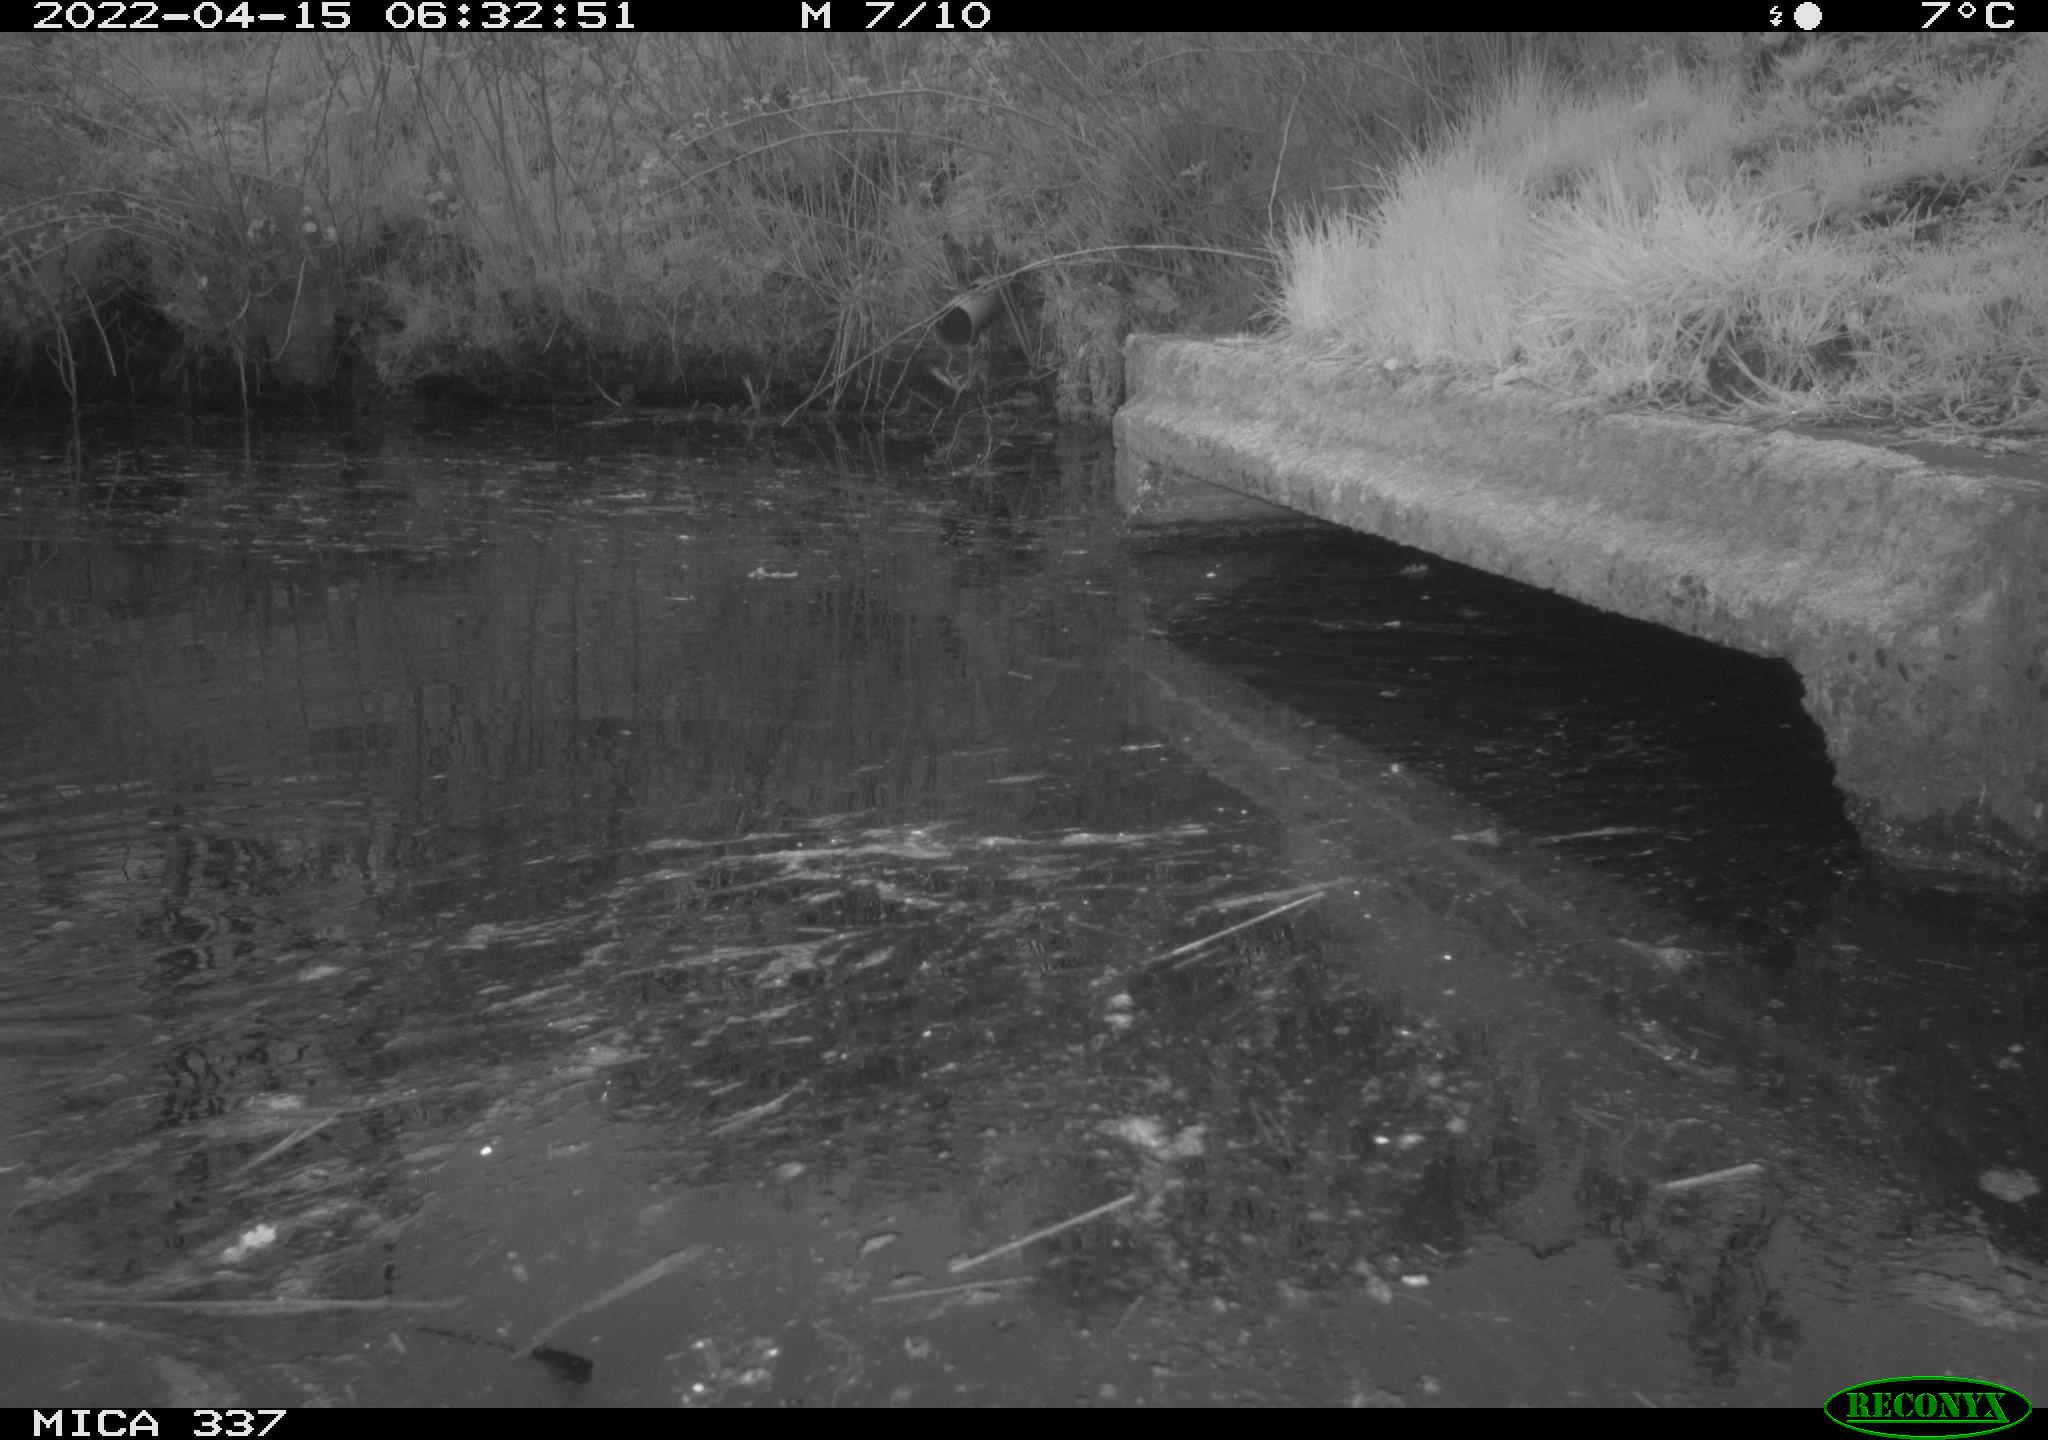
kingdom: Animalia
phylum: Chordata
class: Aves
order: Gruiformes
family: Rallidae
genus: Gallinula
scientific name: Gallinula chloropus
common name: Common moorhen
